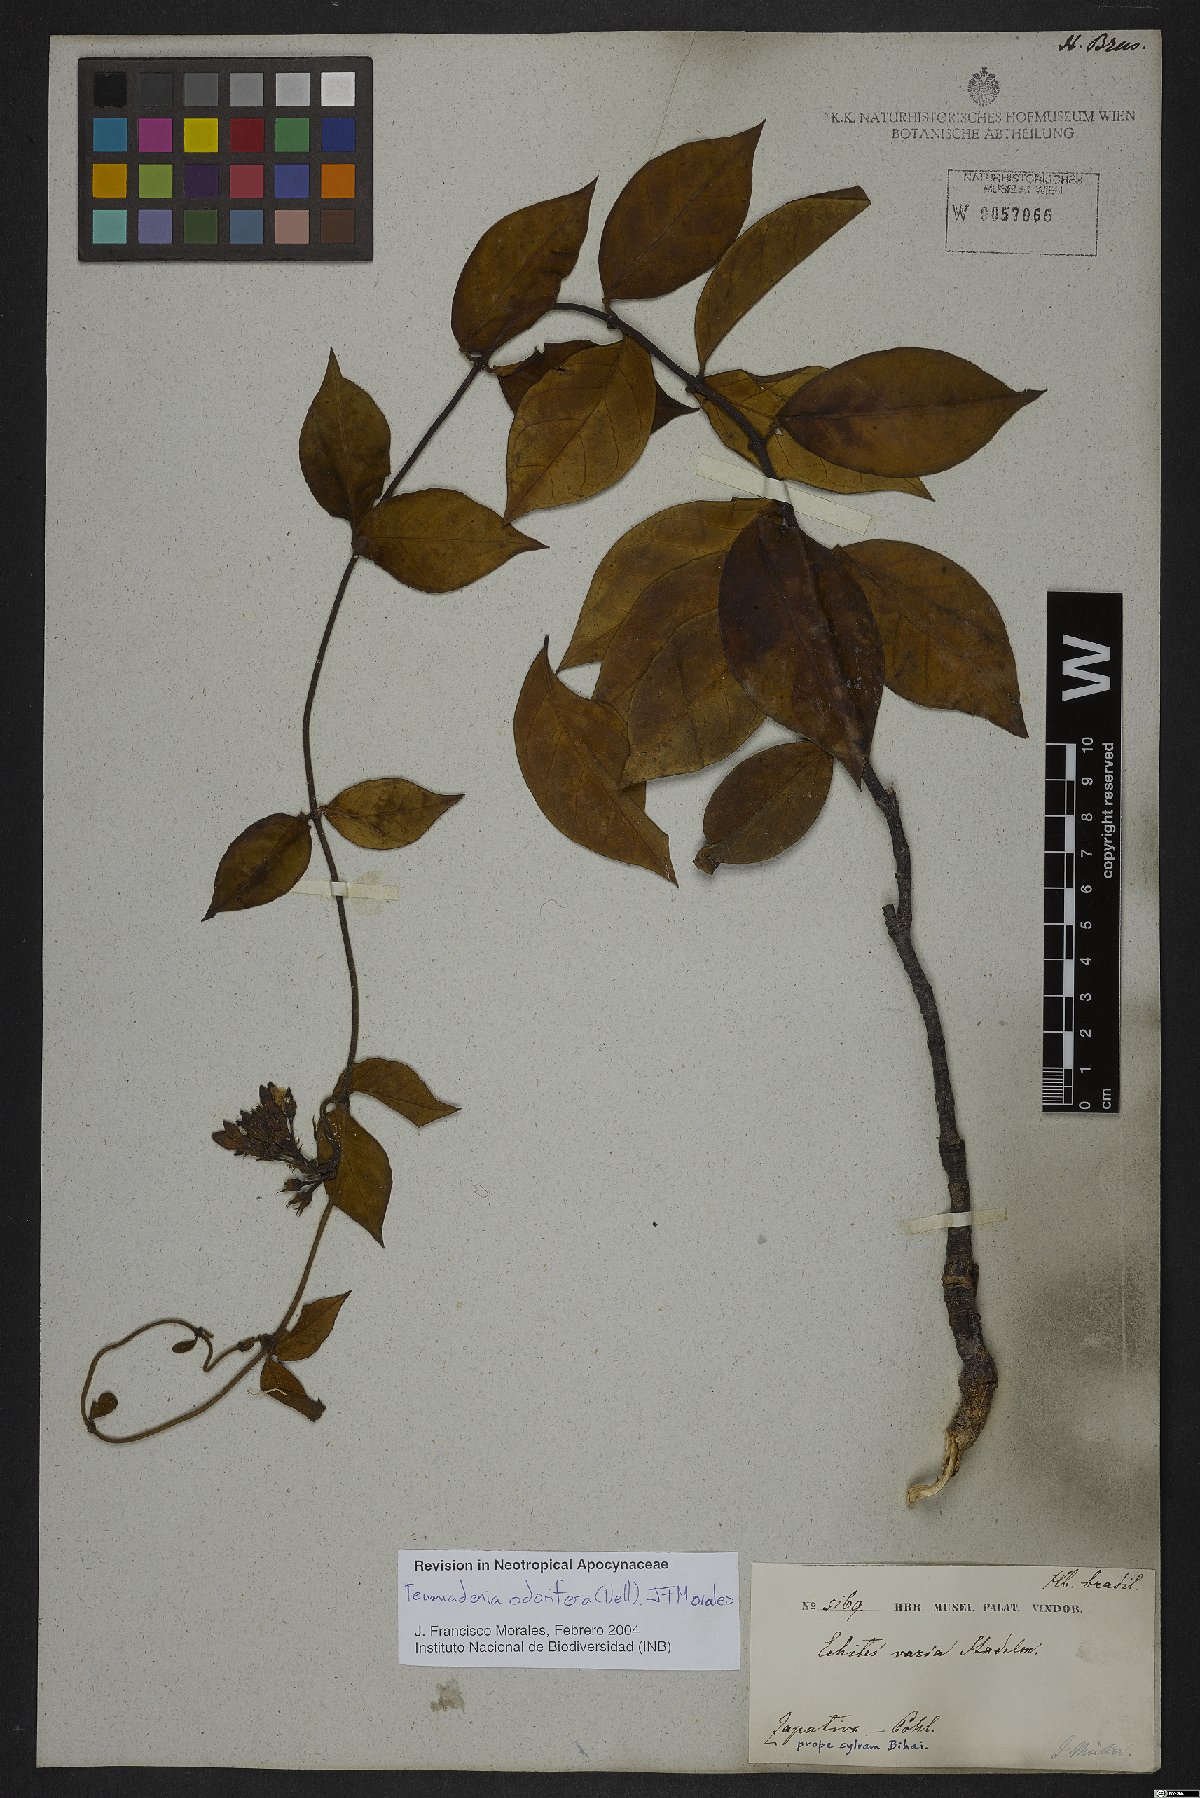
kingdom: Plantae
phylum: Tracheophyta
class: Magnoliopsida
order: Gentianales
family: Apocynaceae
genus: Temnadenia
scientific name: Temnadenia odorifera
